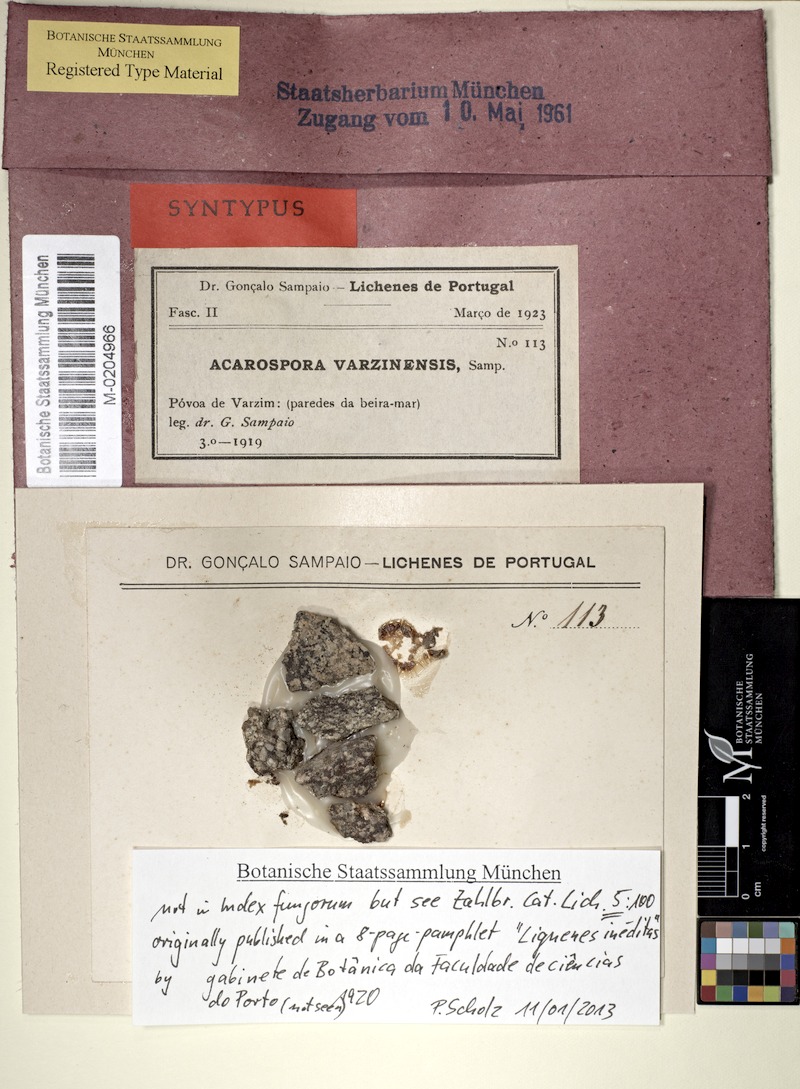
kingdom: Fungi
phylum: Ascomycota
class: Lecanoromycetes
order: Acarosporales
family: Acarosporaceae
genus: Acarospora
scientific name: Acarospora
